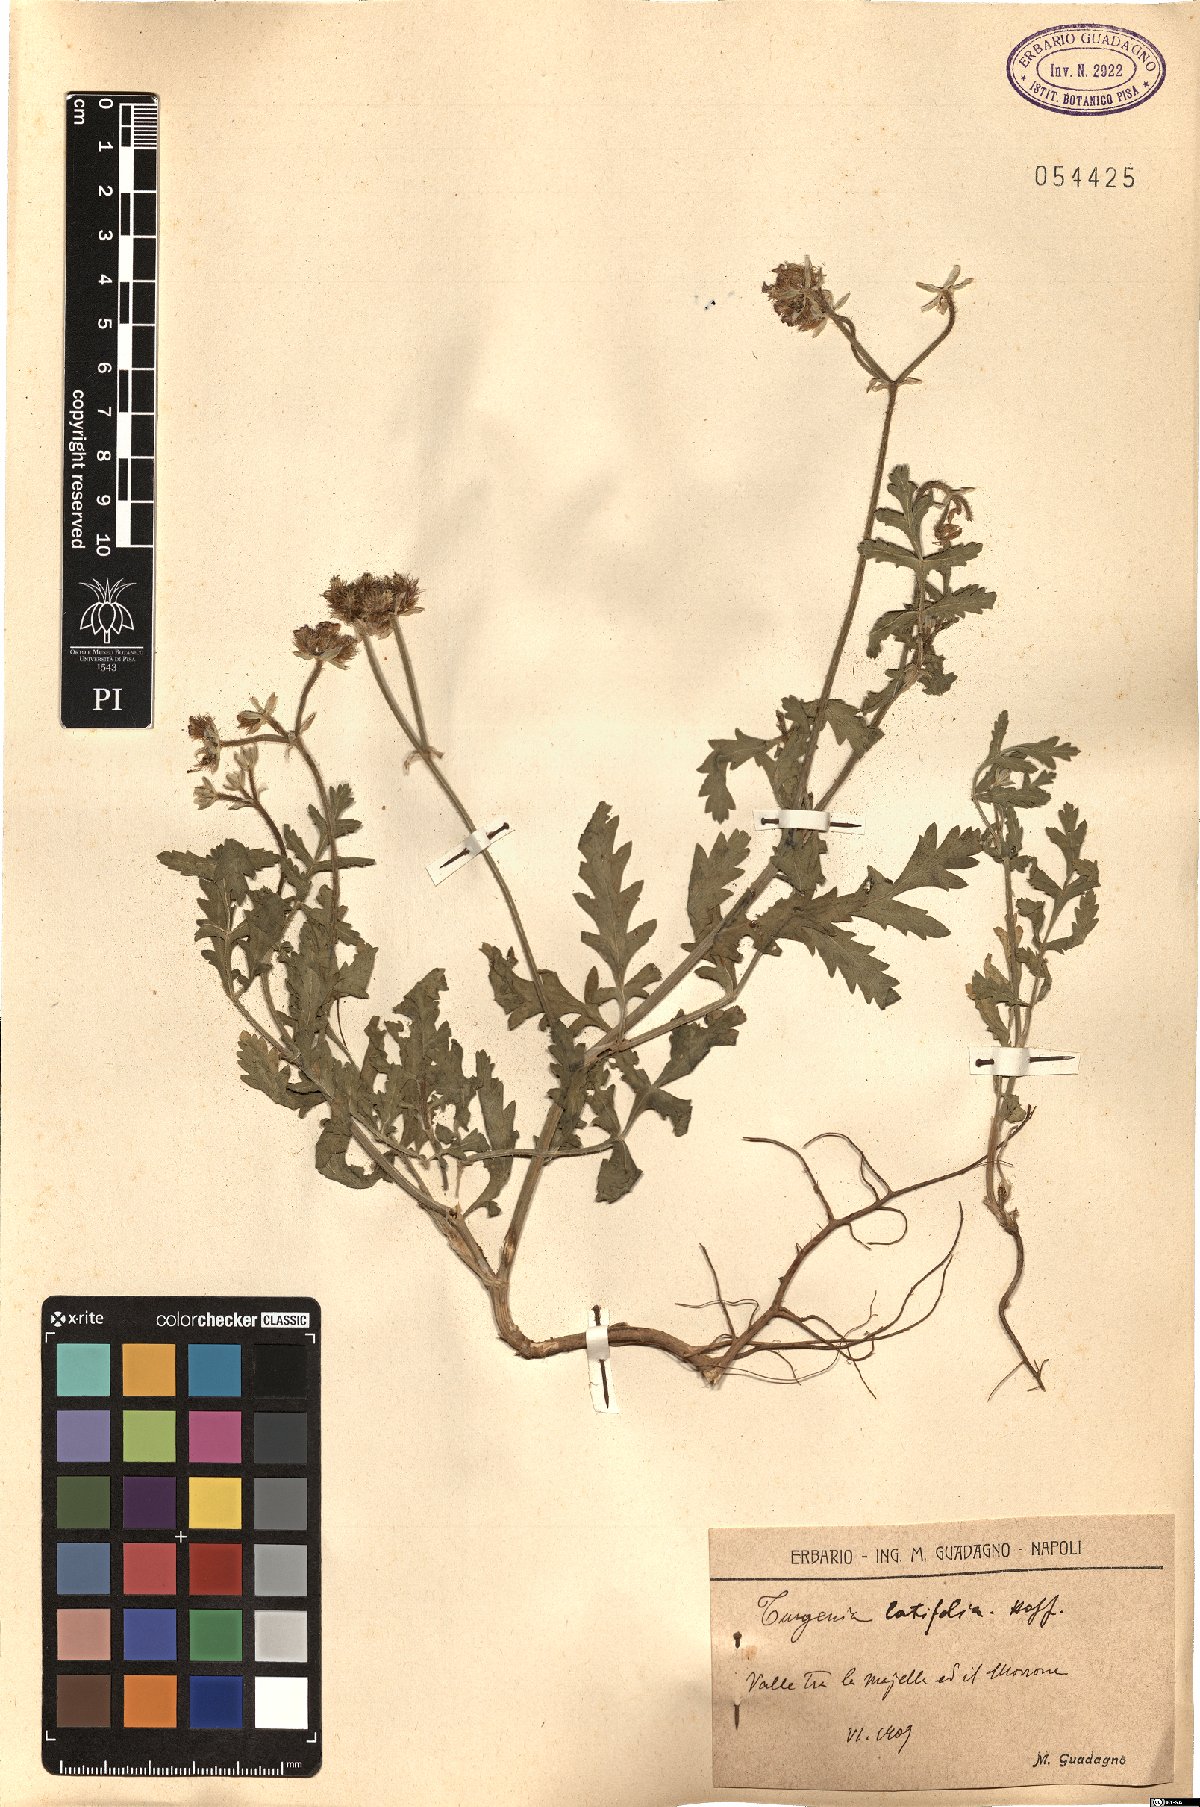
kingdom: Plantae
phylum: Tracheophyta
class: Magnoliopsida
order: Apiales
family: Apiaceae
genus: Turgenia
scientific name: Turgenia latifolia
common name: Greater bur-parsley
